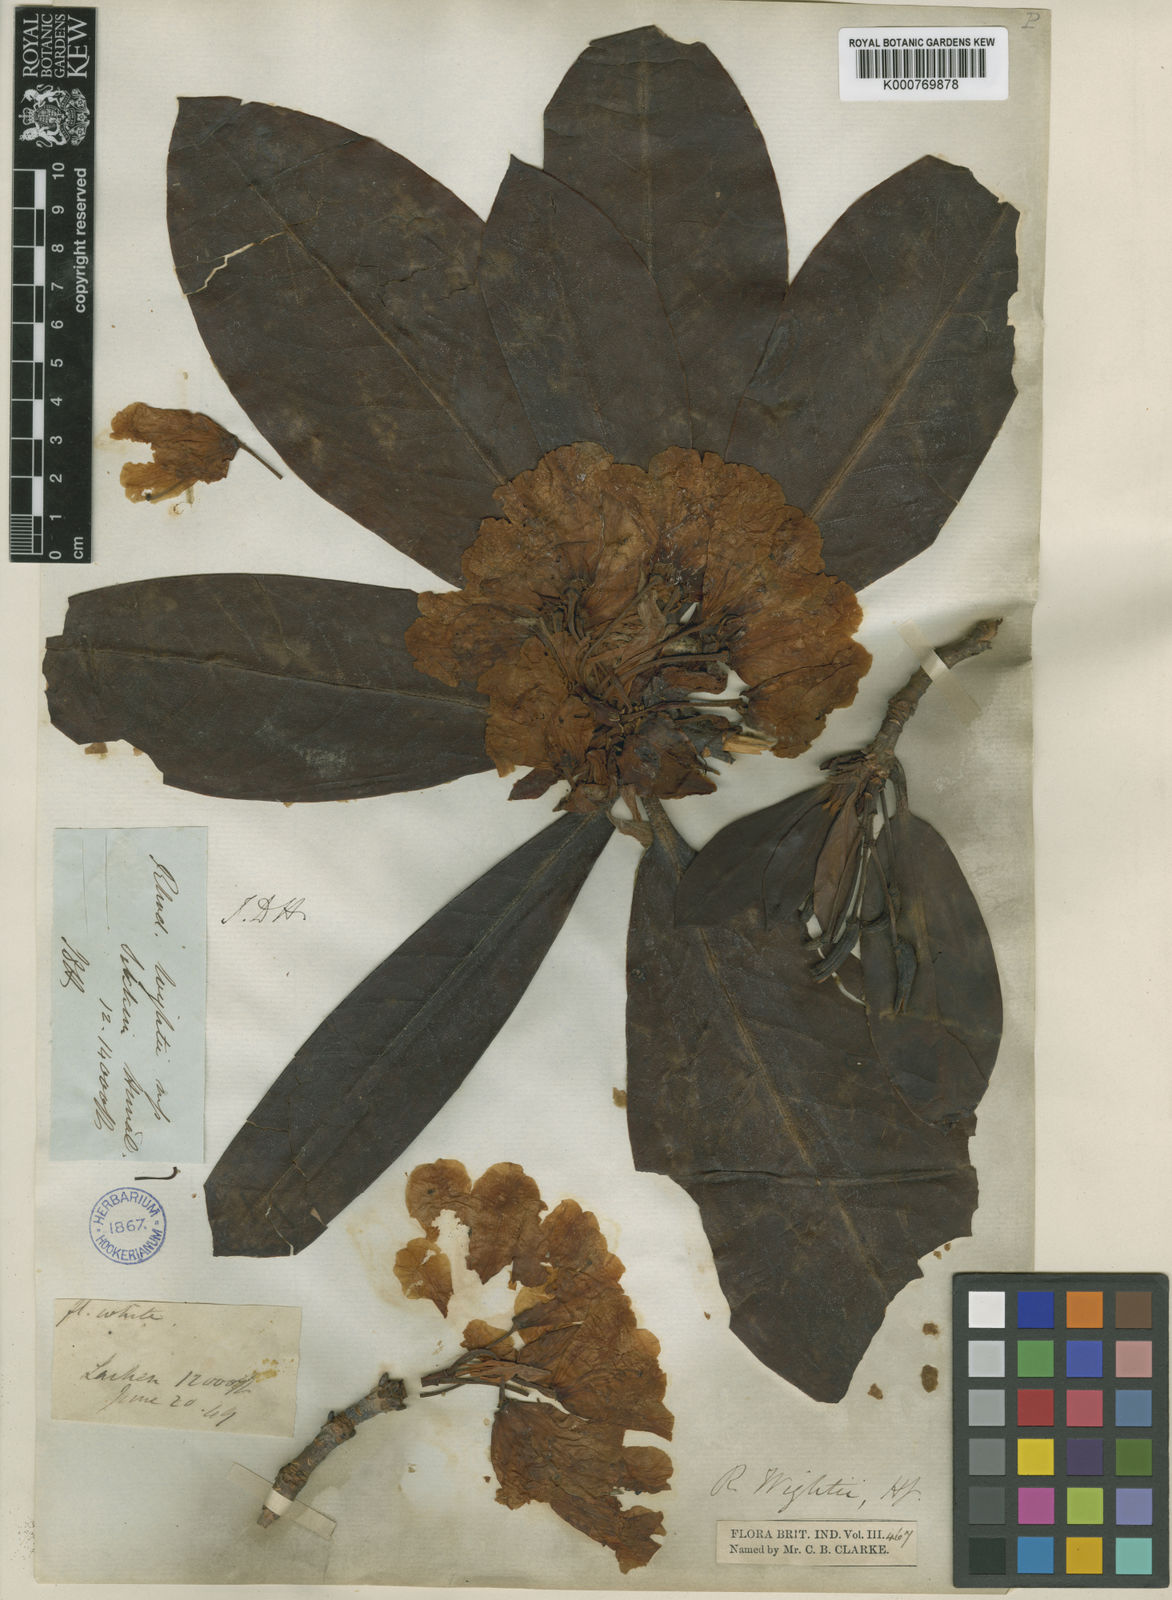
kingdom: Plantae
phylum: Tracheophyta
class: Magnoliopsida
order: Ericales
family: Ericaceae
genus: Rhododendron
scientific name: Rhododendron wightii
